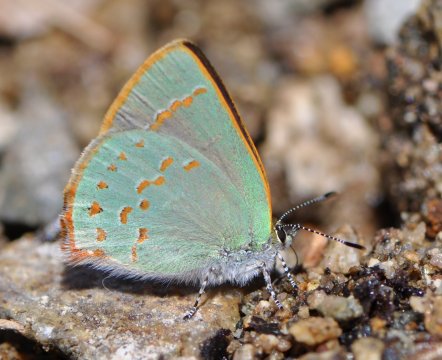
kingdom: Animalia
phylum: Arthropoda
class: Insecta
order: Lepidoptera
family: Lycaenidae
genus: Erora
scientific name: Erora quaderna
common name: Arizona Hairstreak
